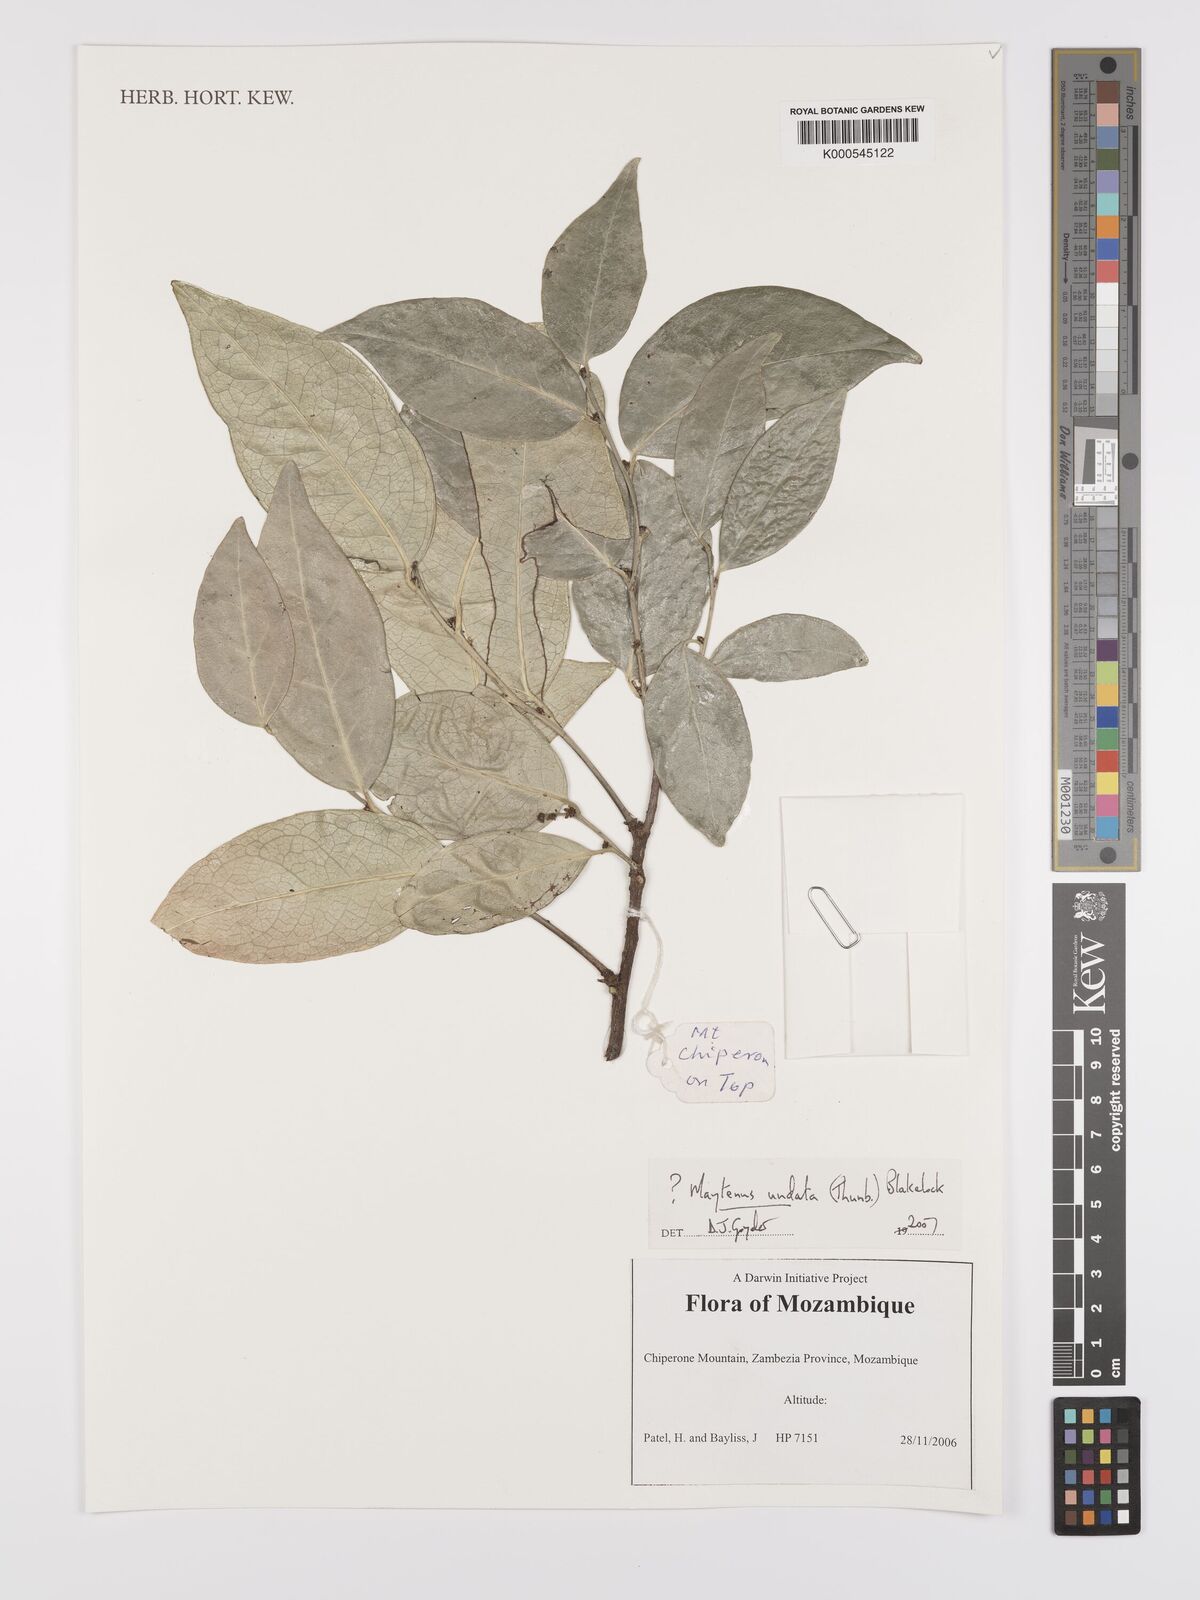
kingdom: Plantae
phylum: Tracheophyta
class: Magnoliopsida
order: Celastrales
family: Celastraceae
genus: Gymnosporia
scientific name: Gymnosporia undata
